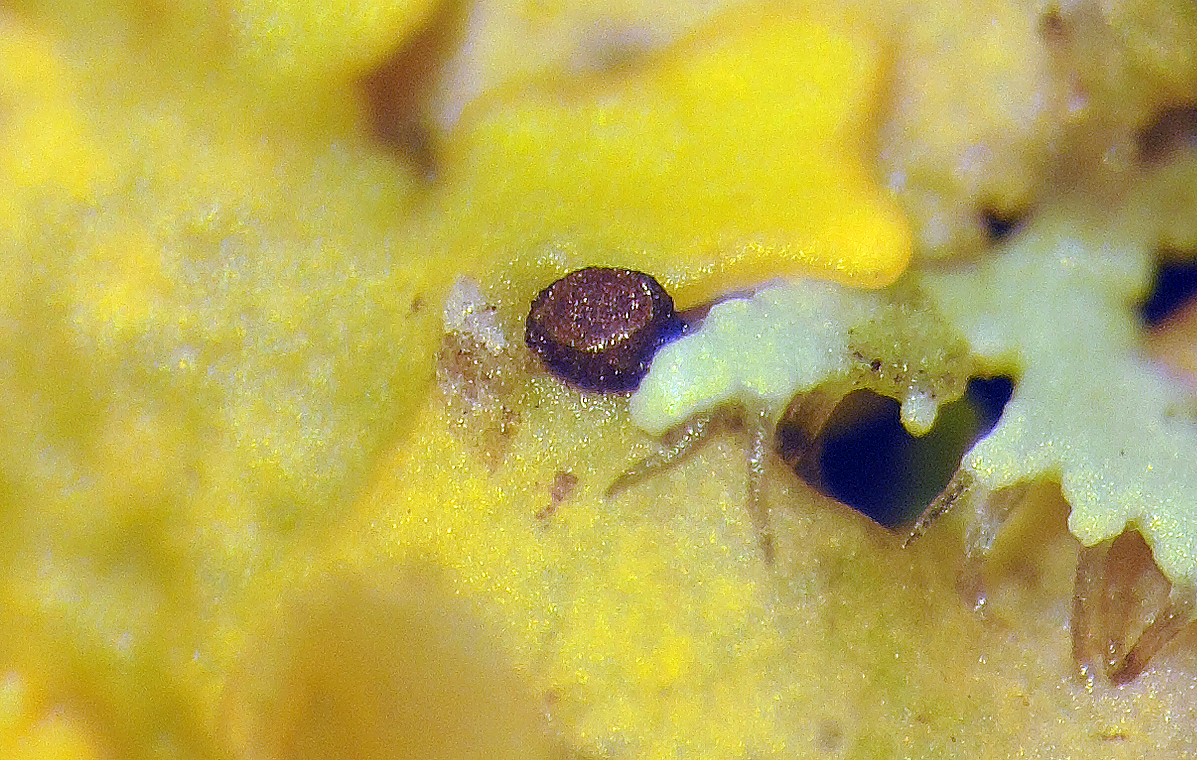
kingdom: Protozoa
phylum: Mycetozoa
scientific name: Mycetozoa
